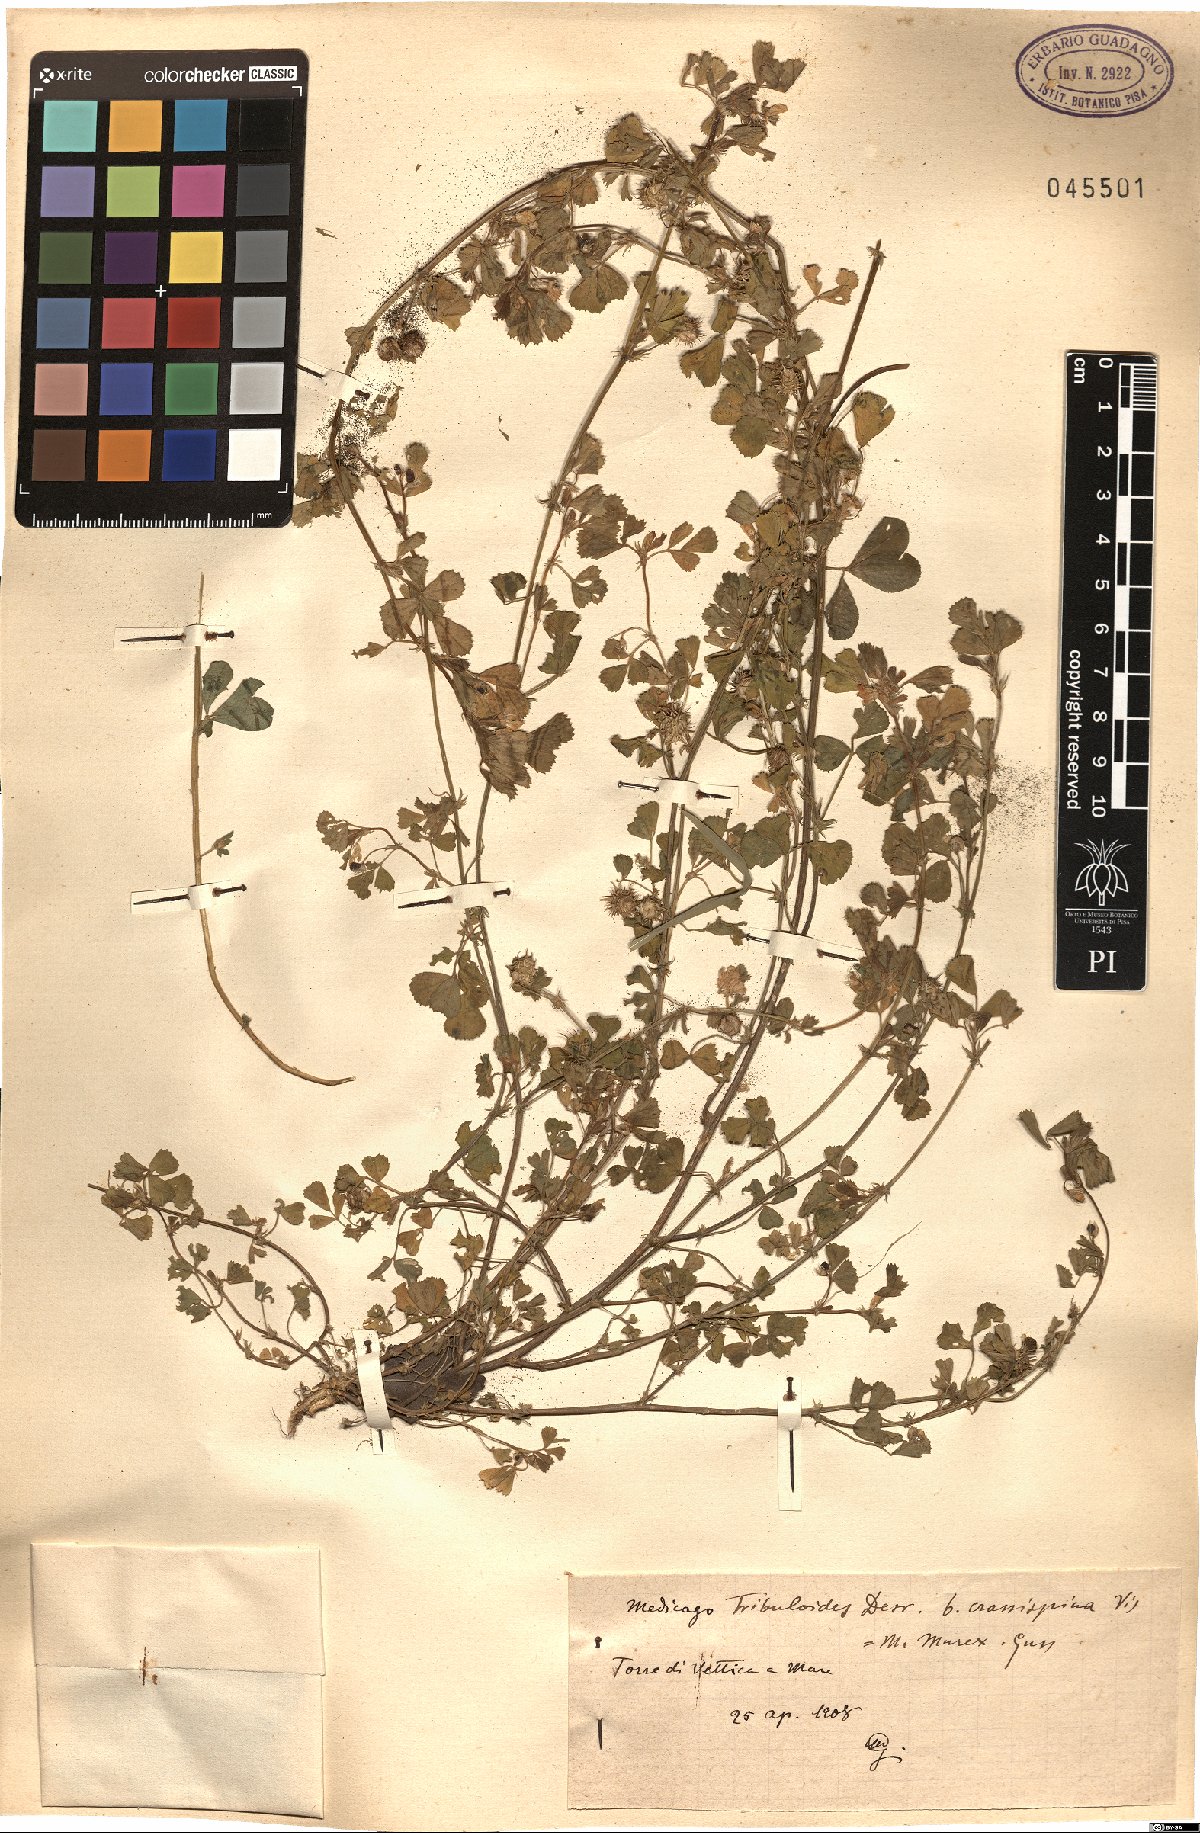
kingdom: Plantae
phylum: Tracheophyta
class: Magnoliopsida
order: Fabales
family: Fabaceae
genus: Medicago
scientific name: Medicago truncatula
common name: Strong-spined medick
